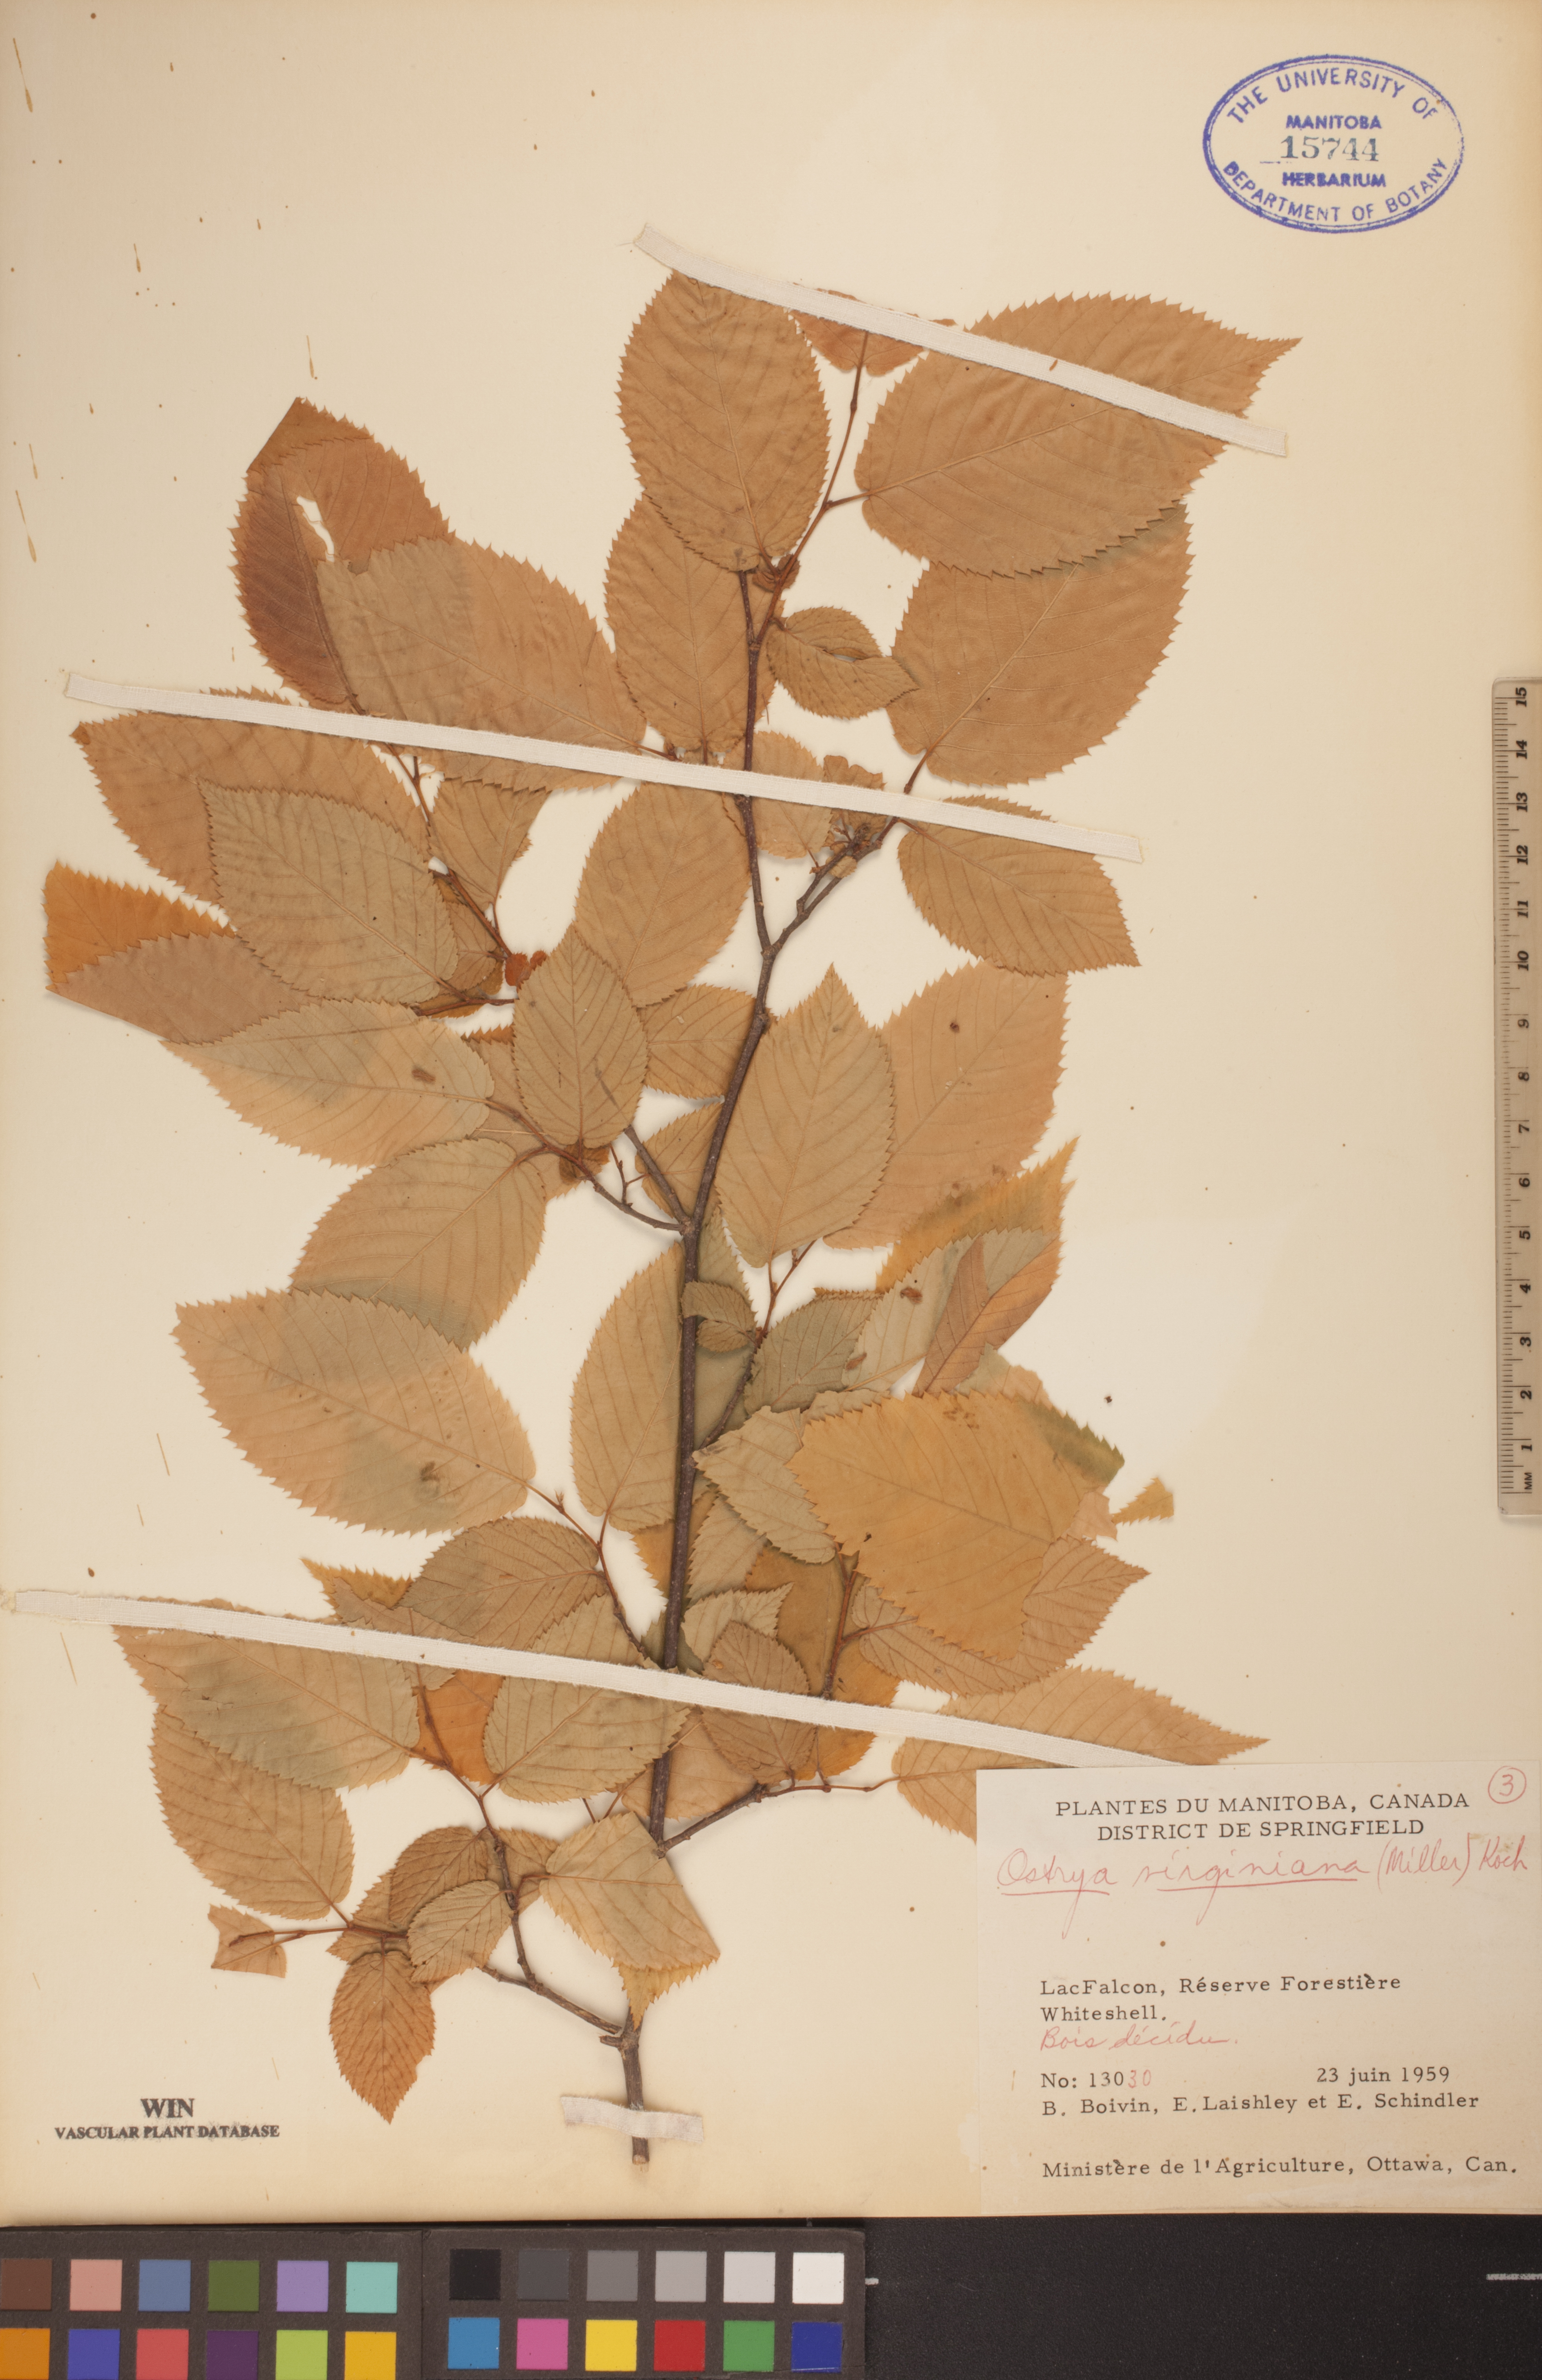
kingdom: Plantae
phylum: Tracheophyta
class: Magnoliopsida
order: Fagales
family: Betulaceae
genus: Ostrya
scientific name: Ostrya virginiana
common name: Ironwood
